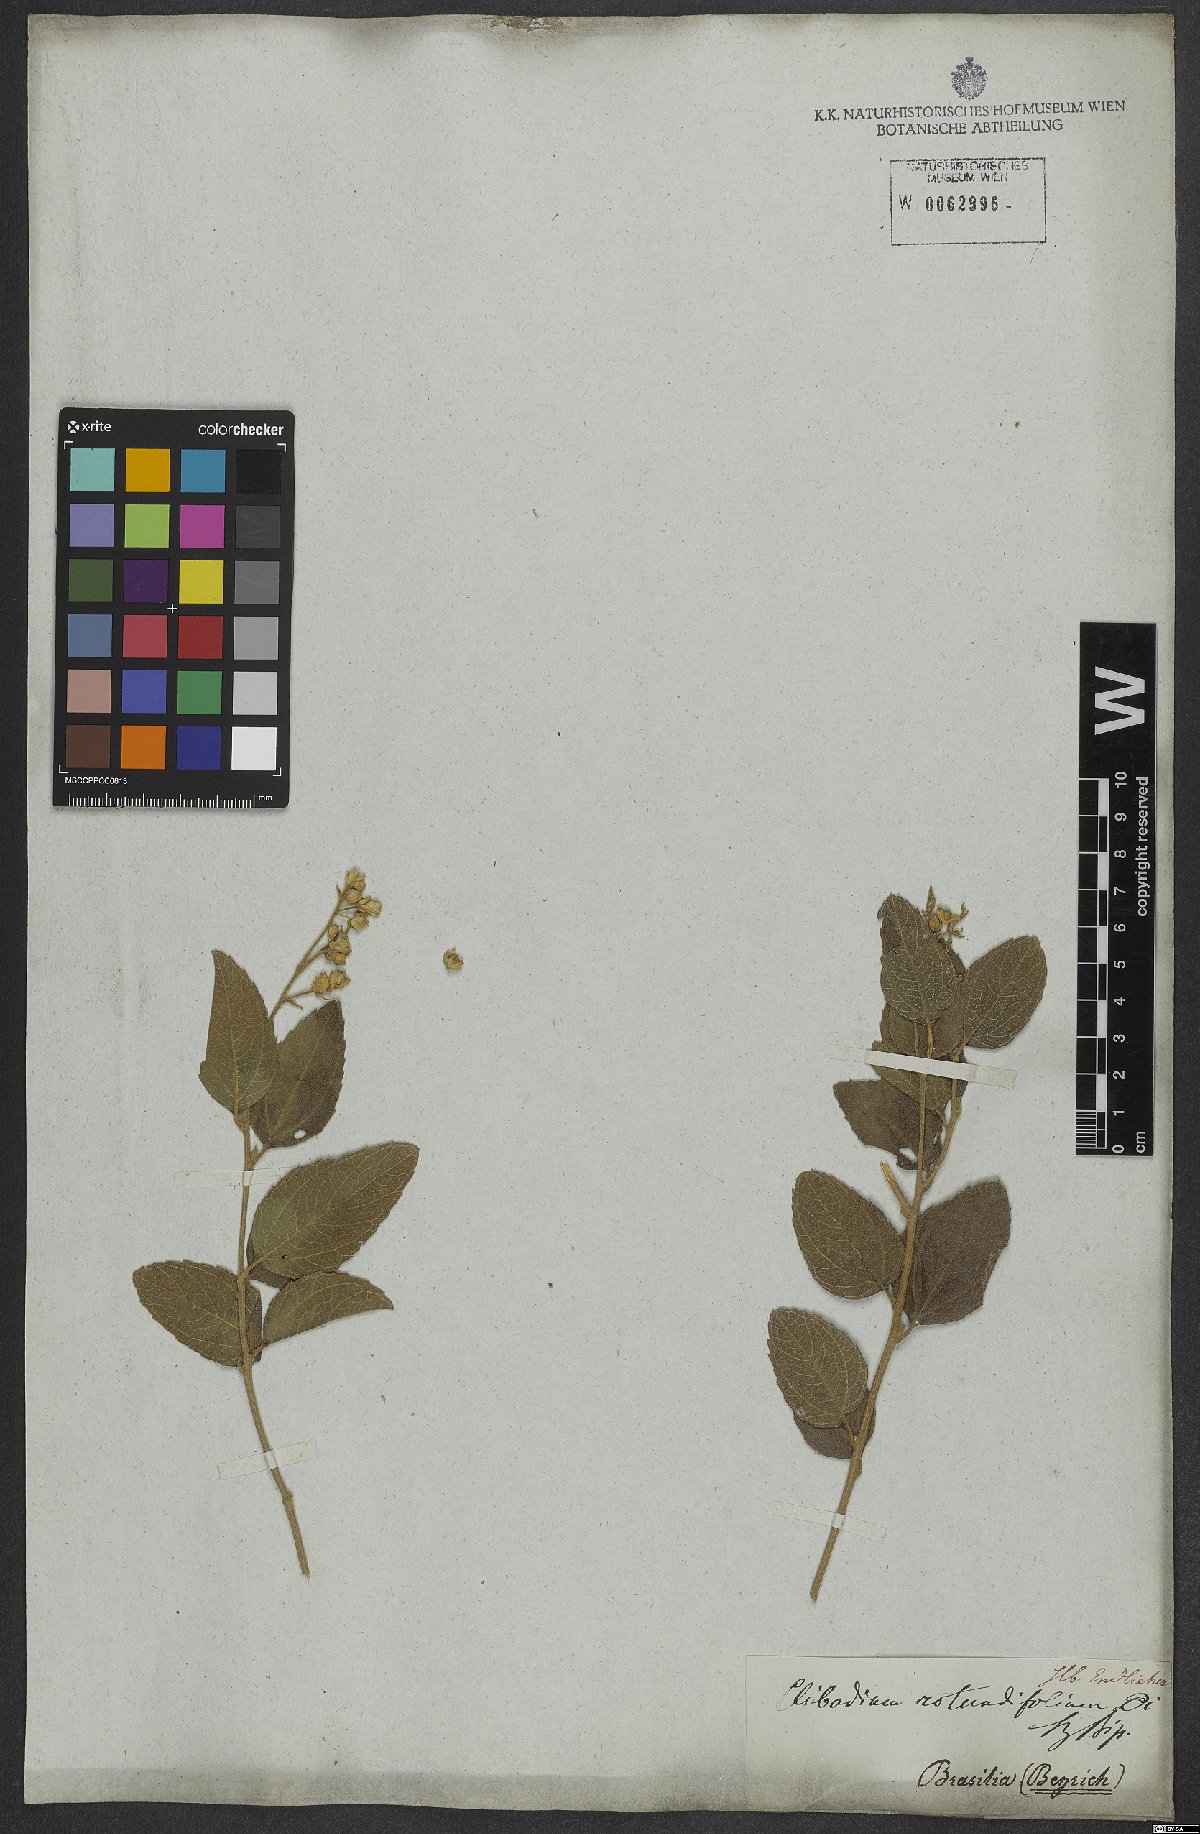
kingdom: Plantae
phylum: Tracheophyta
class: Magnoliopsida
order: Asterales
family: Asteraceae
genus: Clibadium
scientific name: Clibadium armanii
